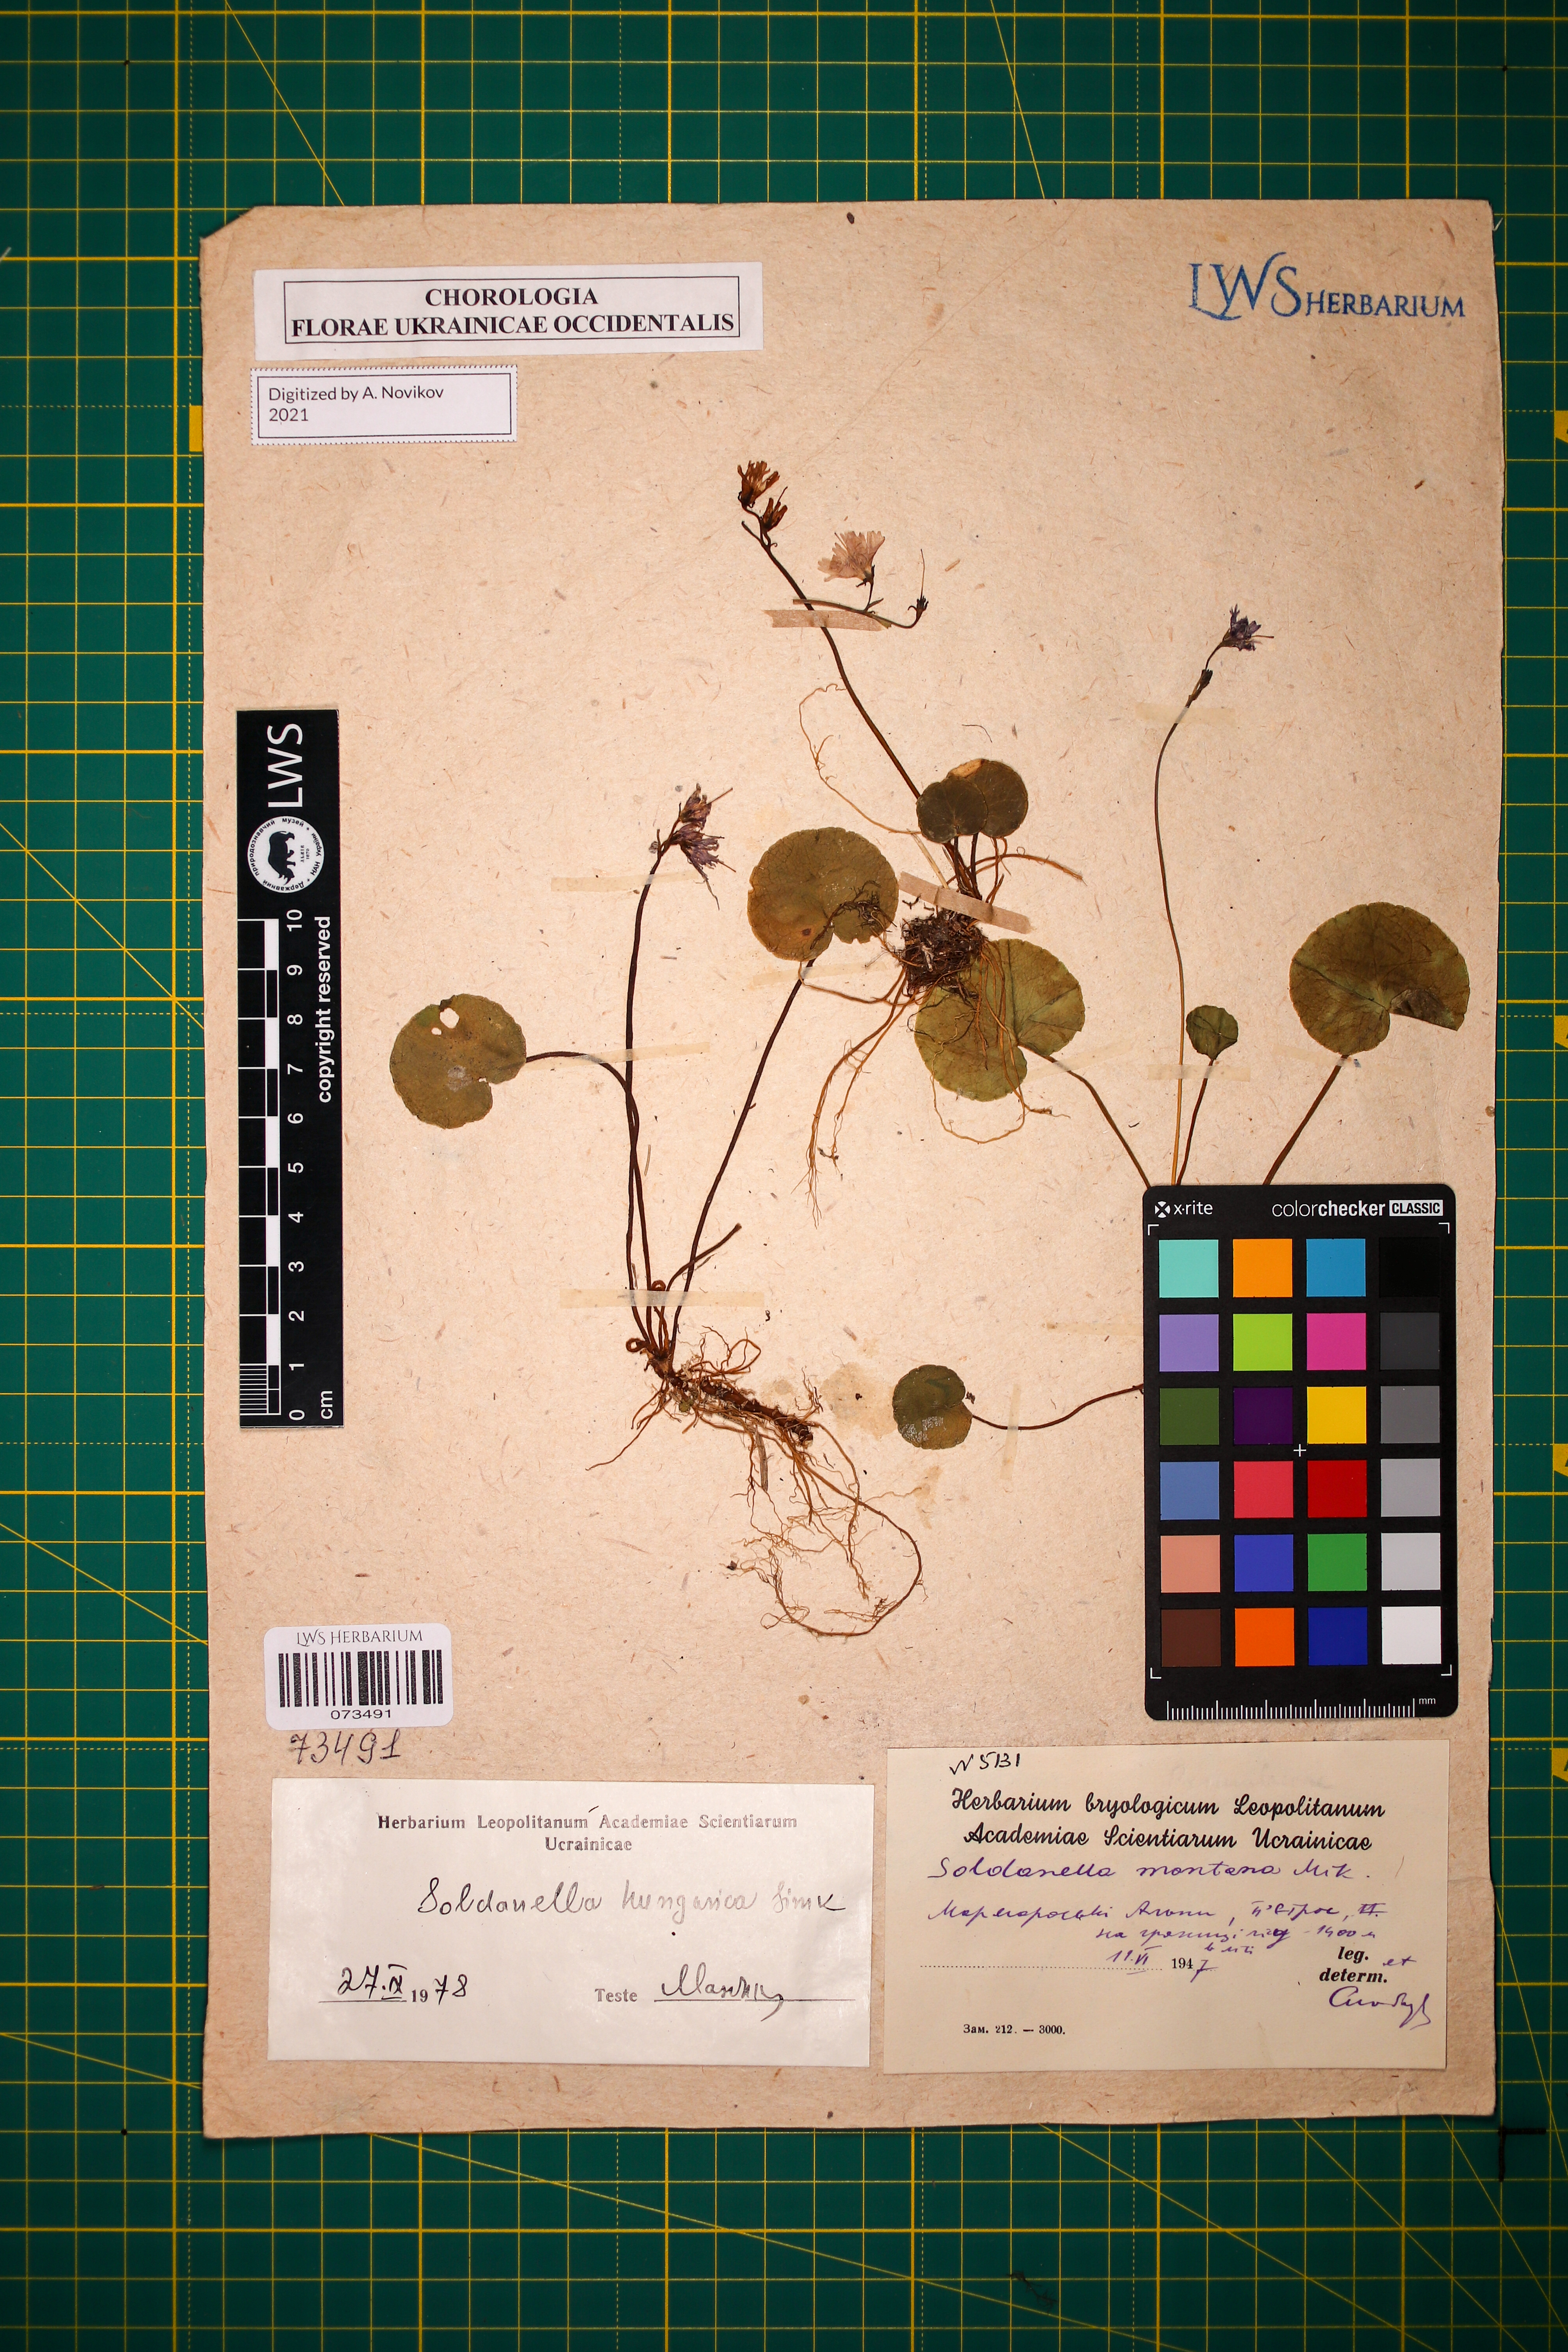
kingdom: Plantae
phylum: Tracheophyta
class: Magnoliopsida
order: Ericales
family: Primulaceae
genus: Soldanella
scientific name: Soldanella hungarica
